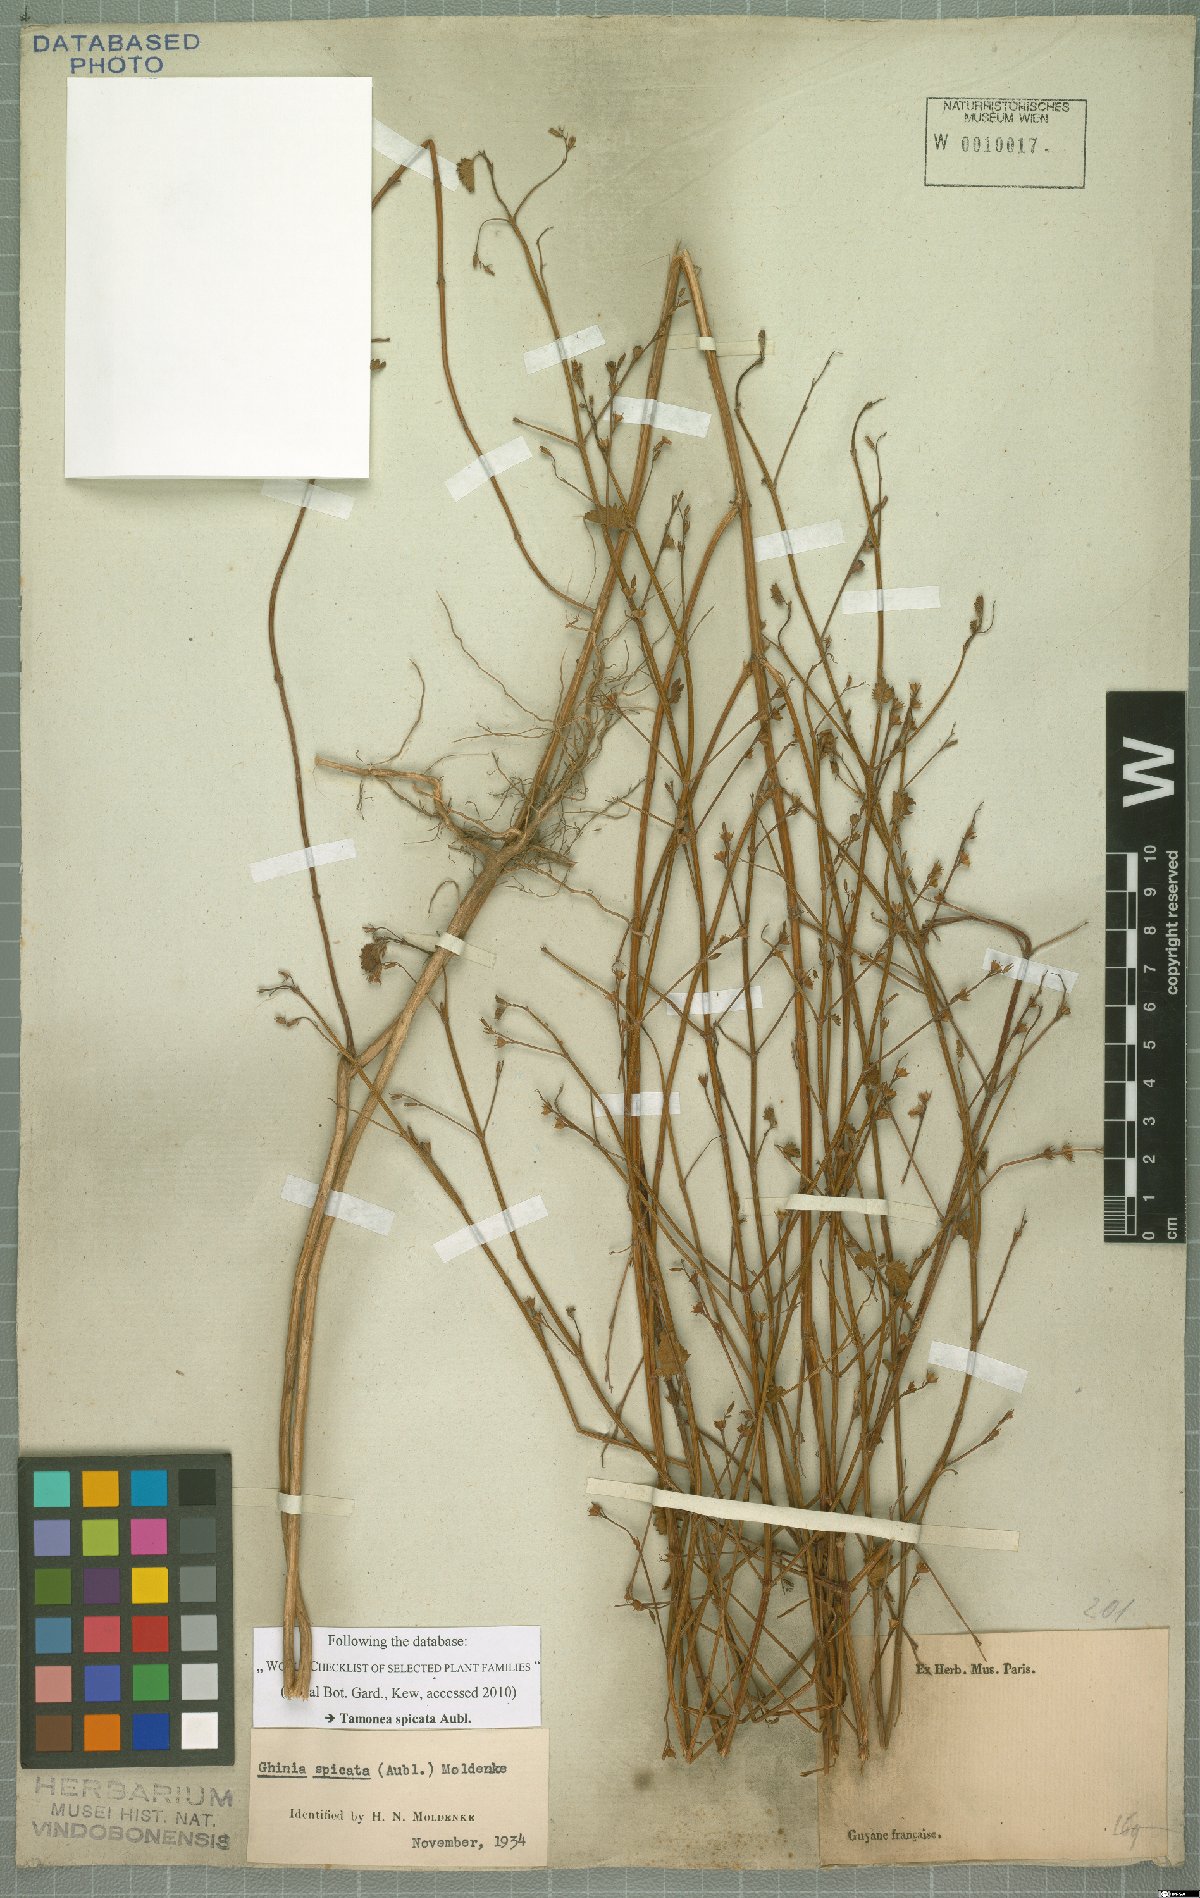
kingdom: Plantae
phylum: Tracheophyta
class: Magnoliopsida
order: Lamiales
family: Verbenaceae
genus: Tamonea
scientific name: Tamonea spicata
